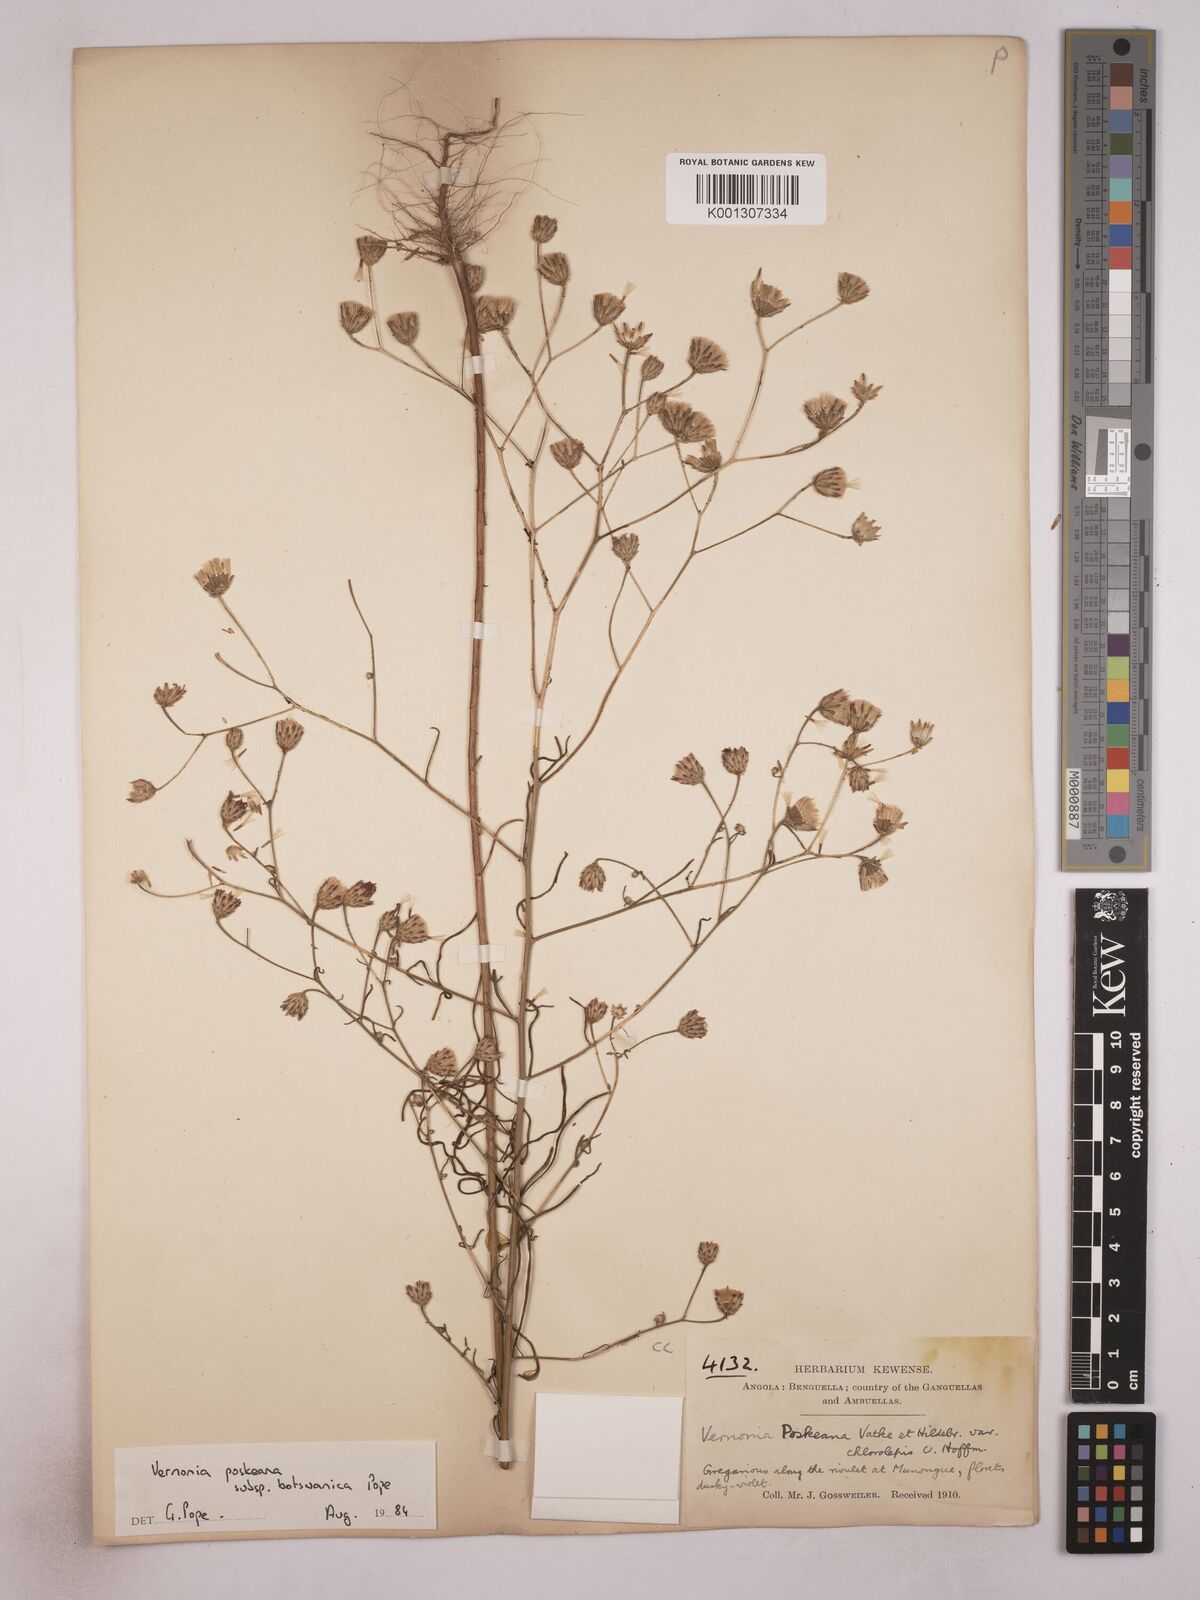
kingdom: Plantae
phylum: Tracheophyta
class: Magnoliopsida
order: Asterales
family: Asteraceae
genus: Crystallopollen
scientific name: Crystallopollen angustifolium
